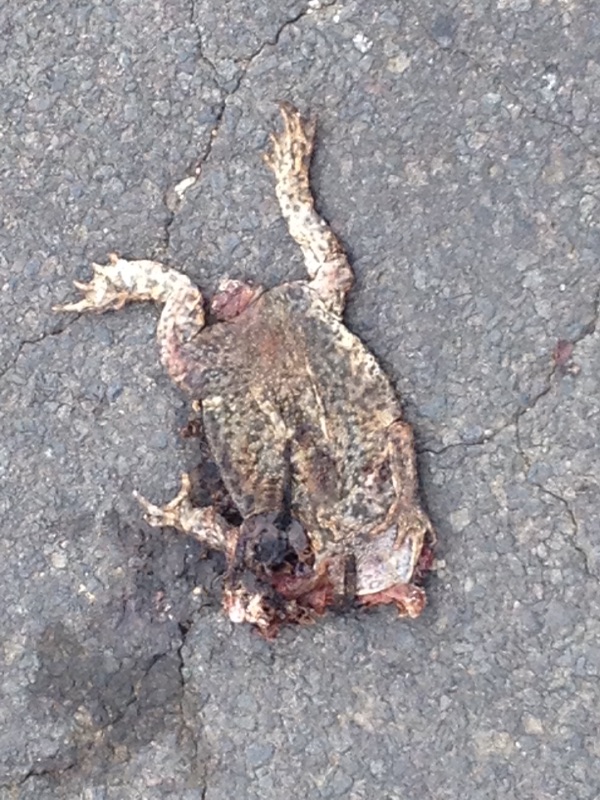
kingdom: Animalia
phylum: Chordata
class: Amphibia
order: Anura
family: Bufonidae
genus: Bufo
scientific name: Bufo bufo
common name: Common toad
